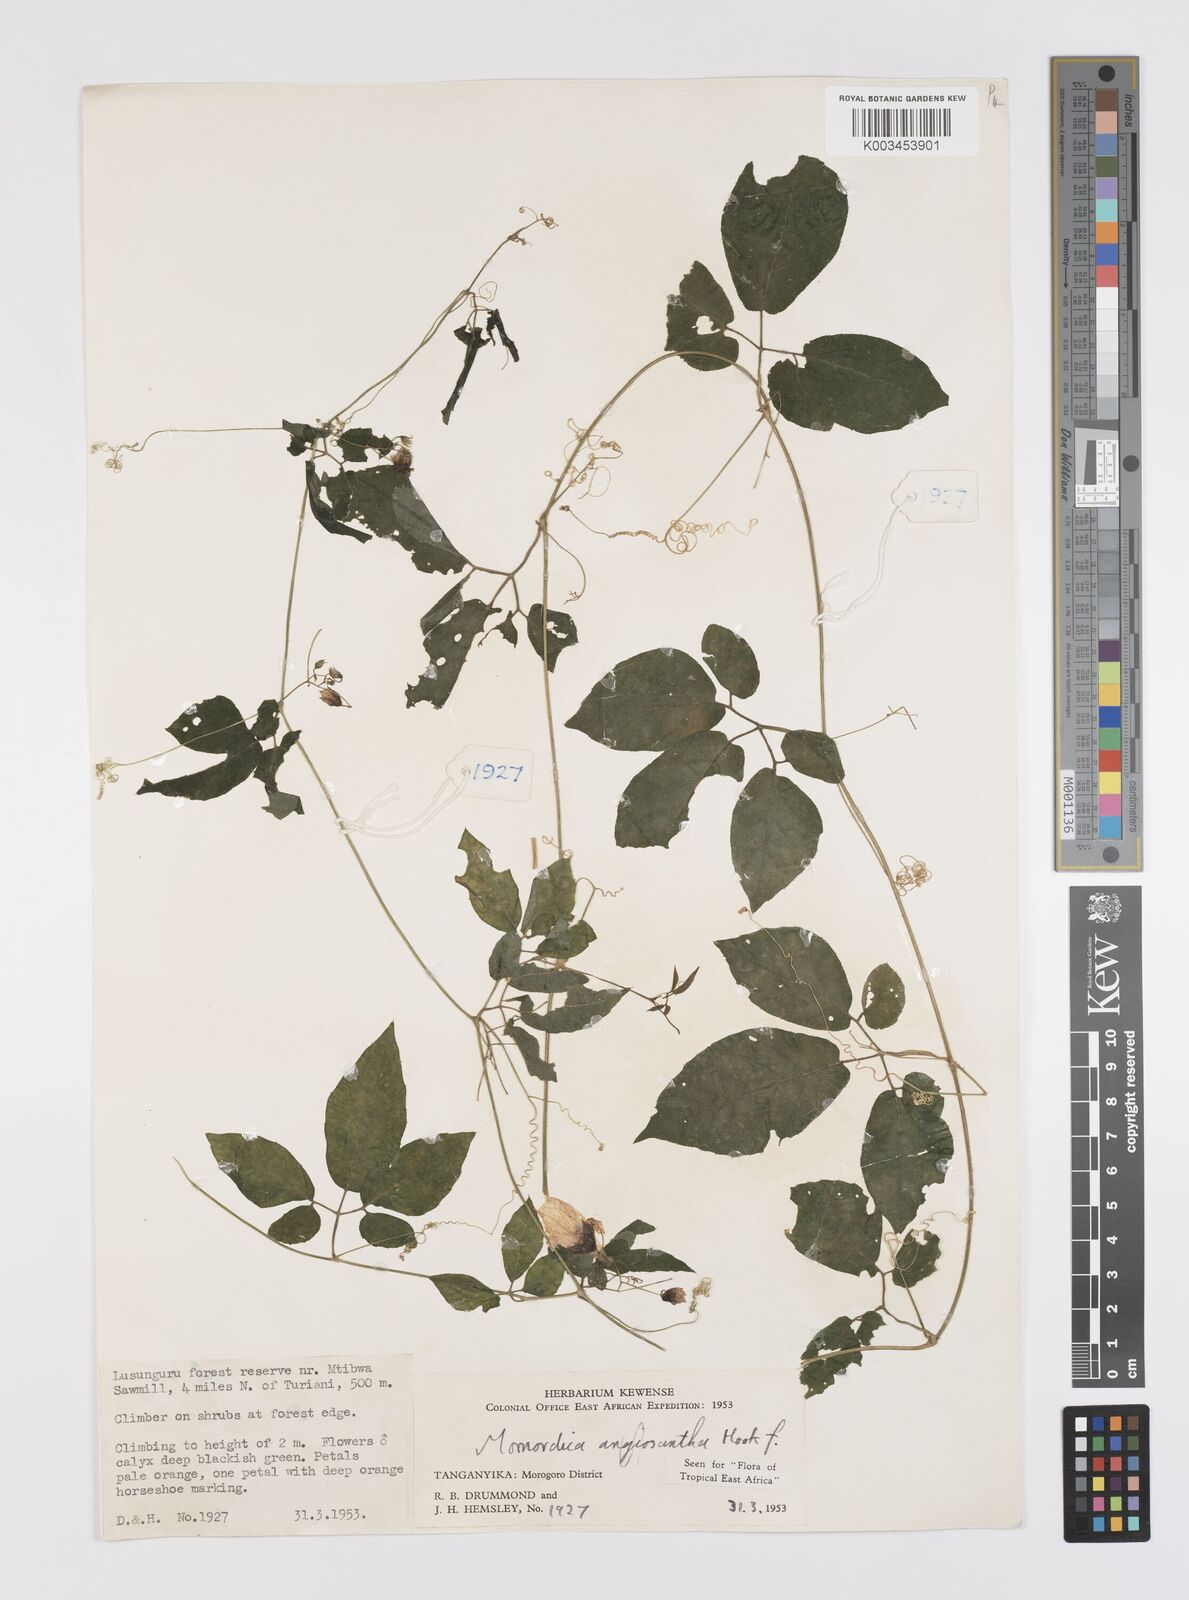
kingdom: Plantae
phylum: Tracheophyta
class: Magnoliopsida
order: Cucurbitales
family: Cucurbitaceae
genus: Momordica
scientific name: Momordica anigosantha
